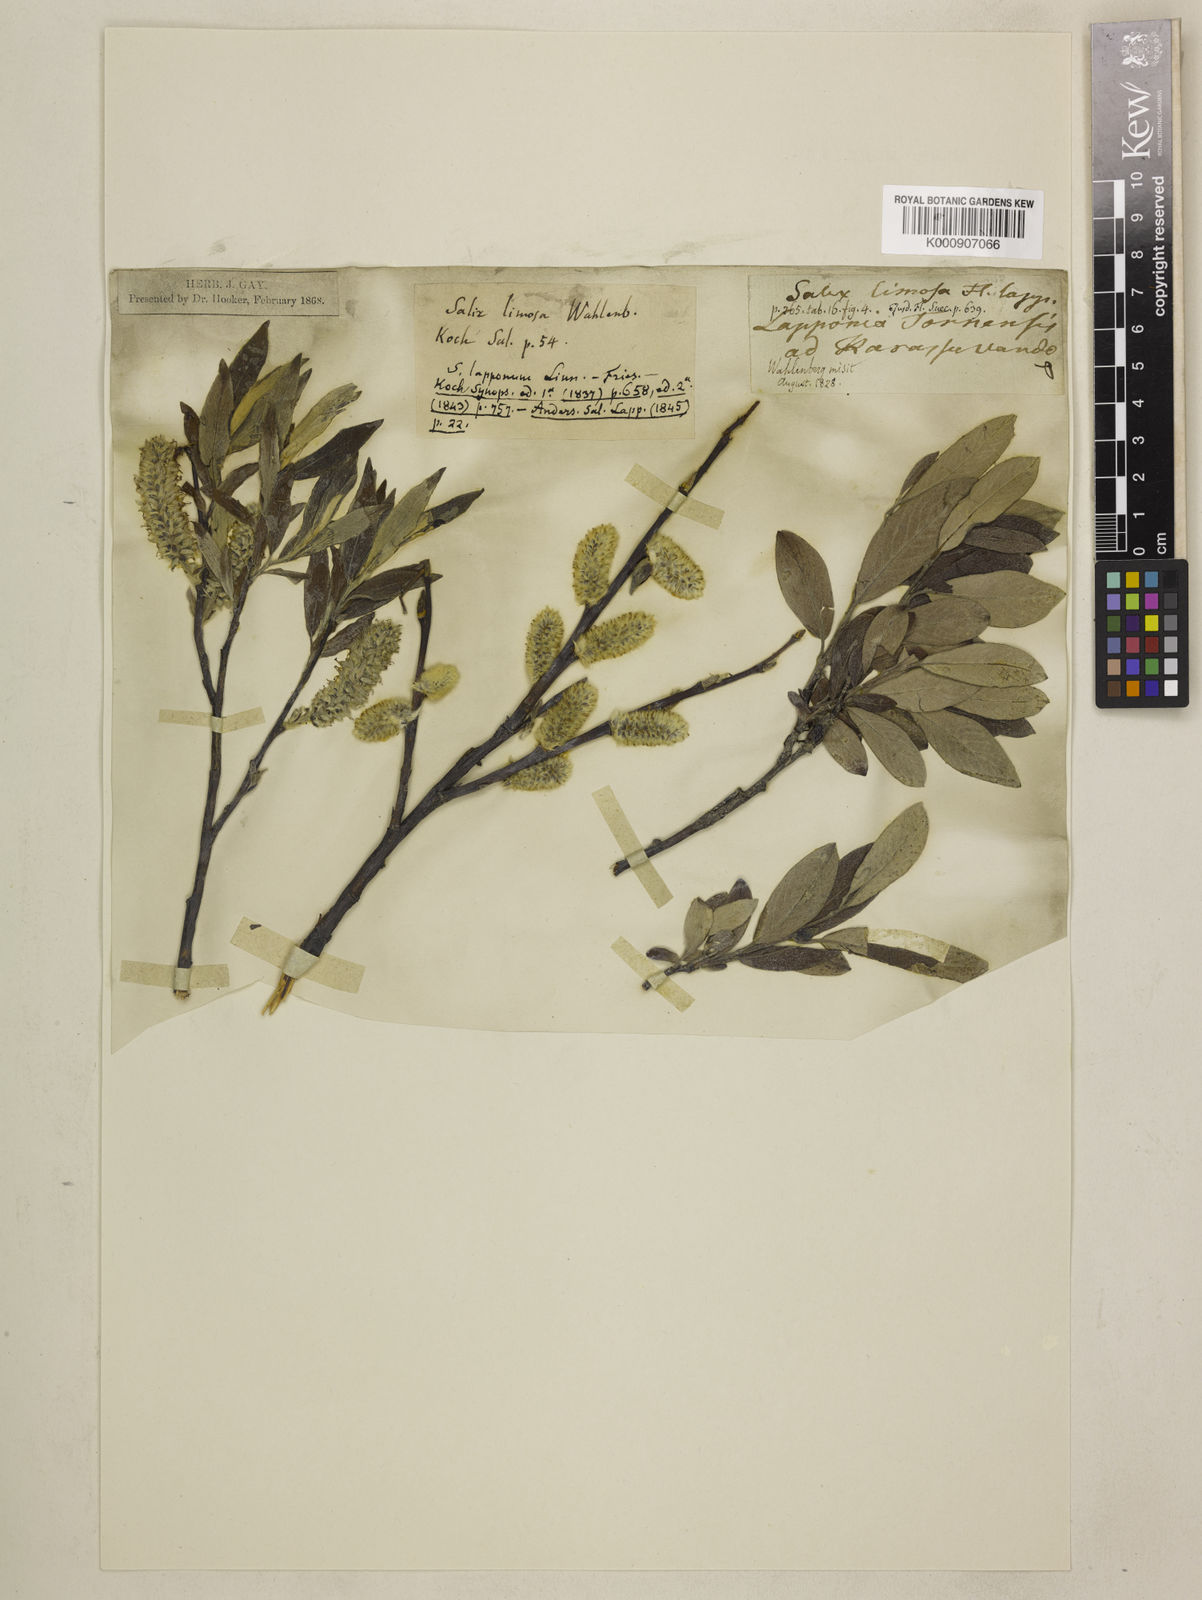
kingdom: Plantae
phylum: Tracheophyta
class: Magnoliopsida
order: Malpighiales
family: Salicaceae
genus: Salix
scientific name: Salix lapponum
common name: Downy willow
